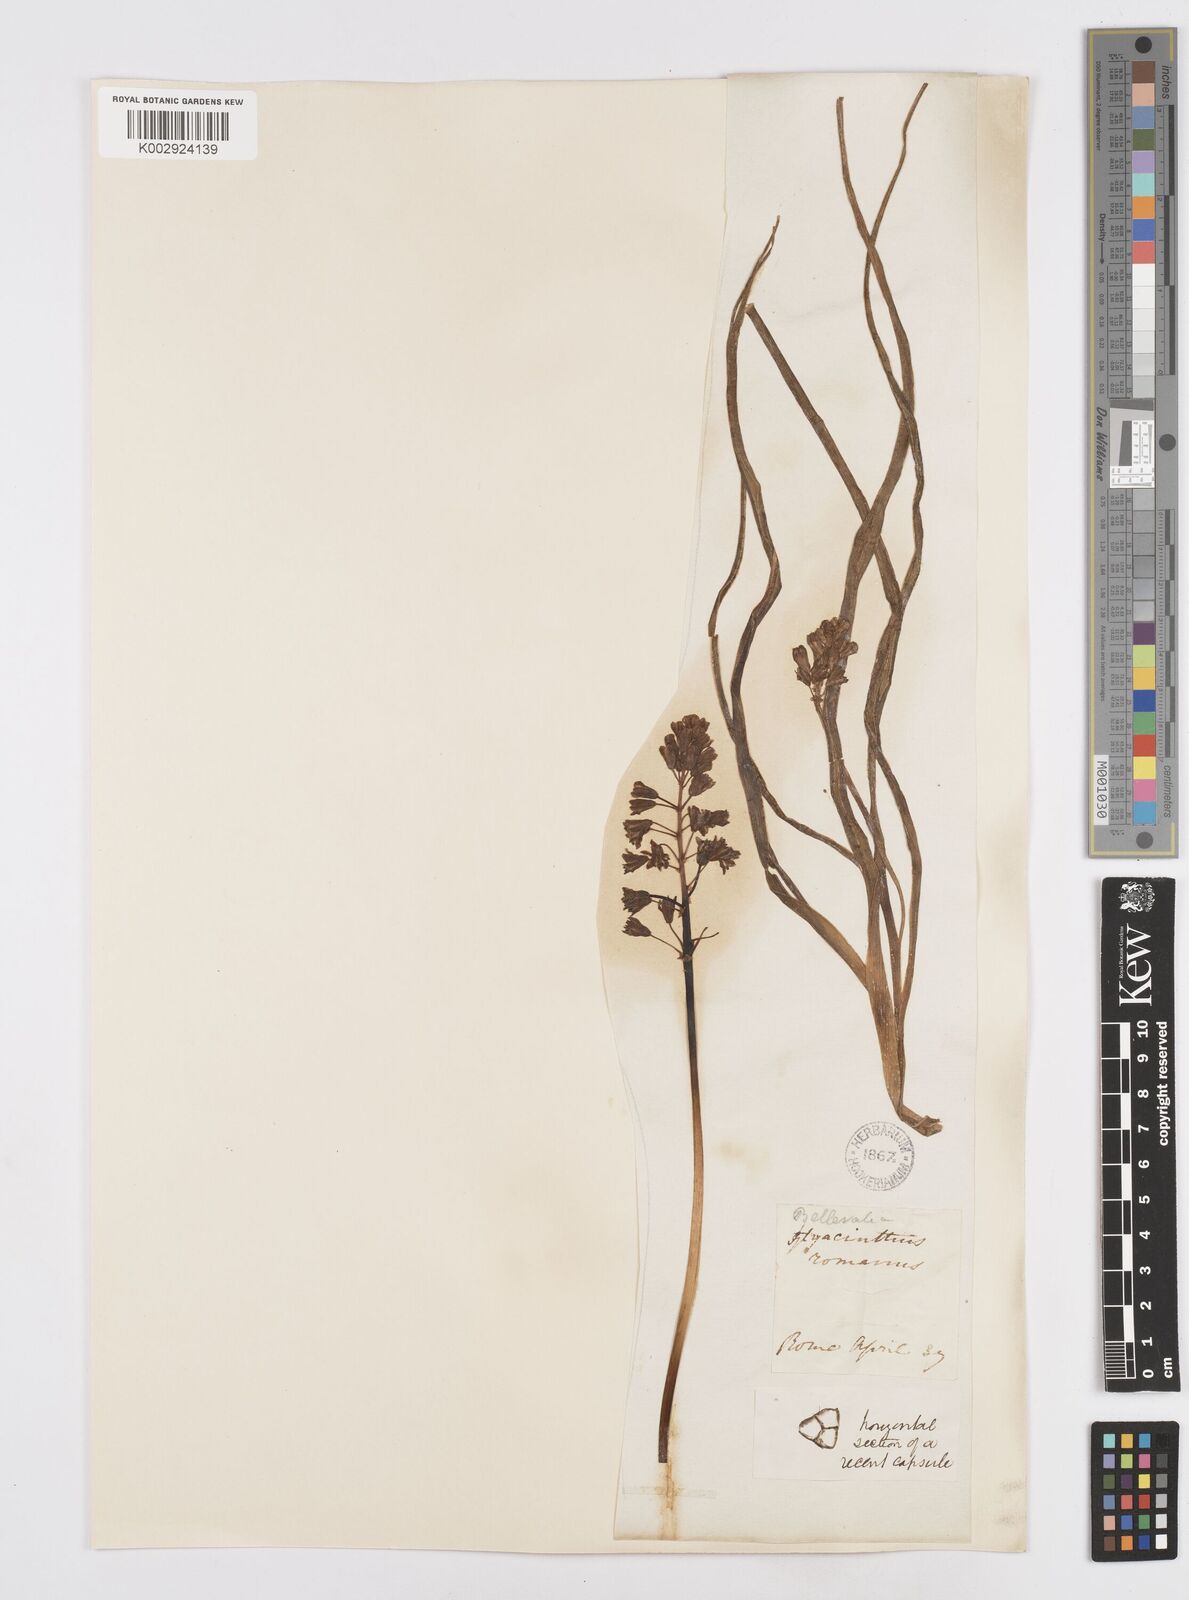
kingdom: Plantae
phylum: Tracheophyta
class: Liliopsida
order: Asparagales
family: Asparagaceae
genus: Bellevalia
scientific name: Bellevalia
